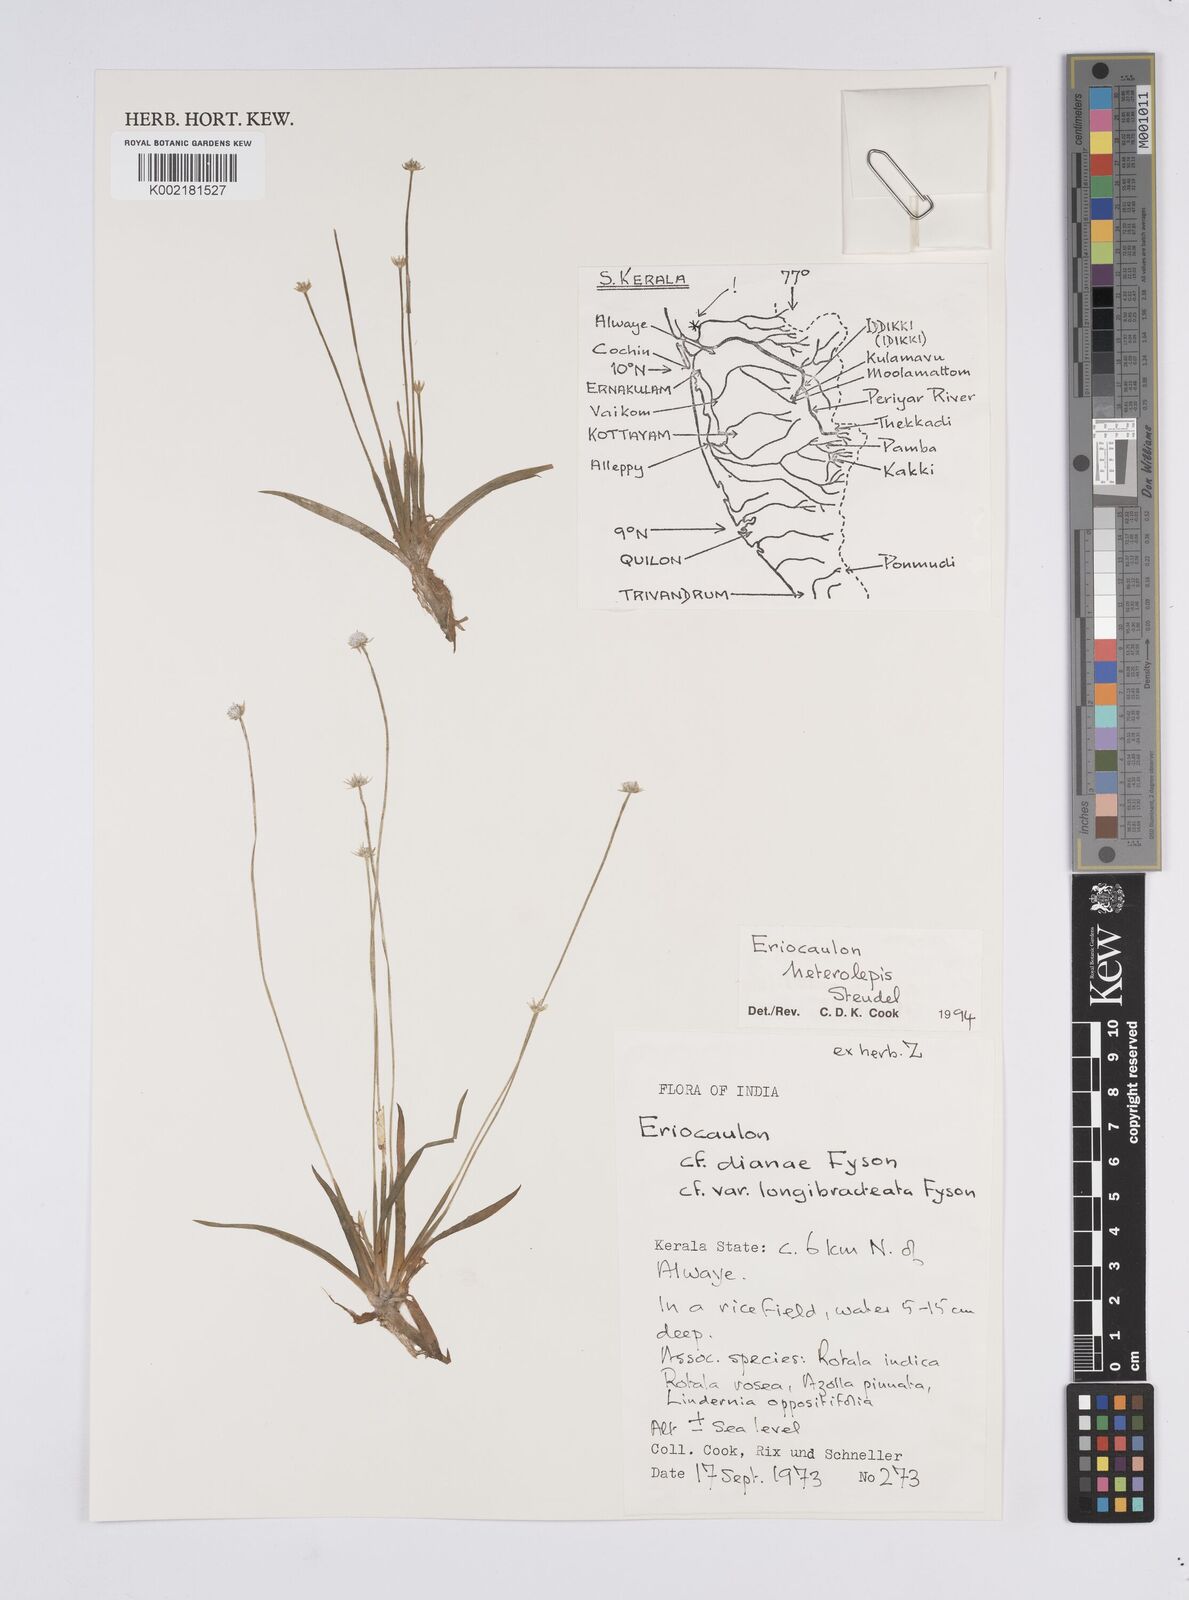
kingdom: Plantae
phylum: Tracheophyta
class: Liliopsida
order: Poales
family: Eriocaulaceae
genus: Eriocaulon
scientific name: Eriocaulon heterolepis
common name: Buttonhead pipewort
